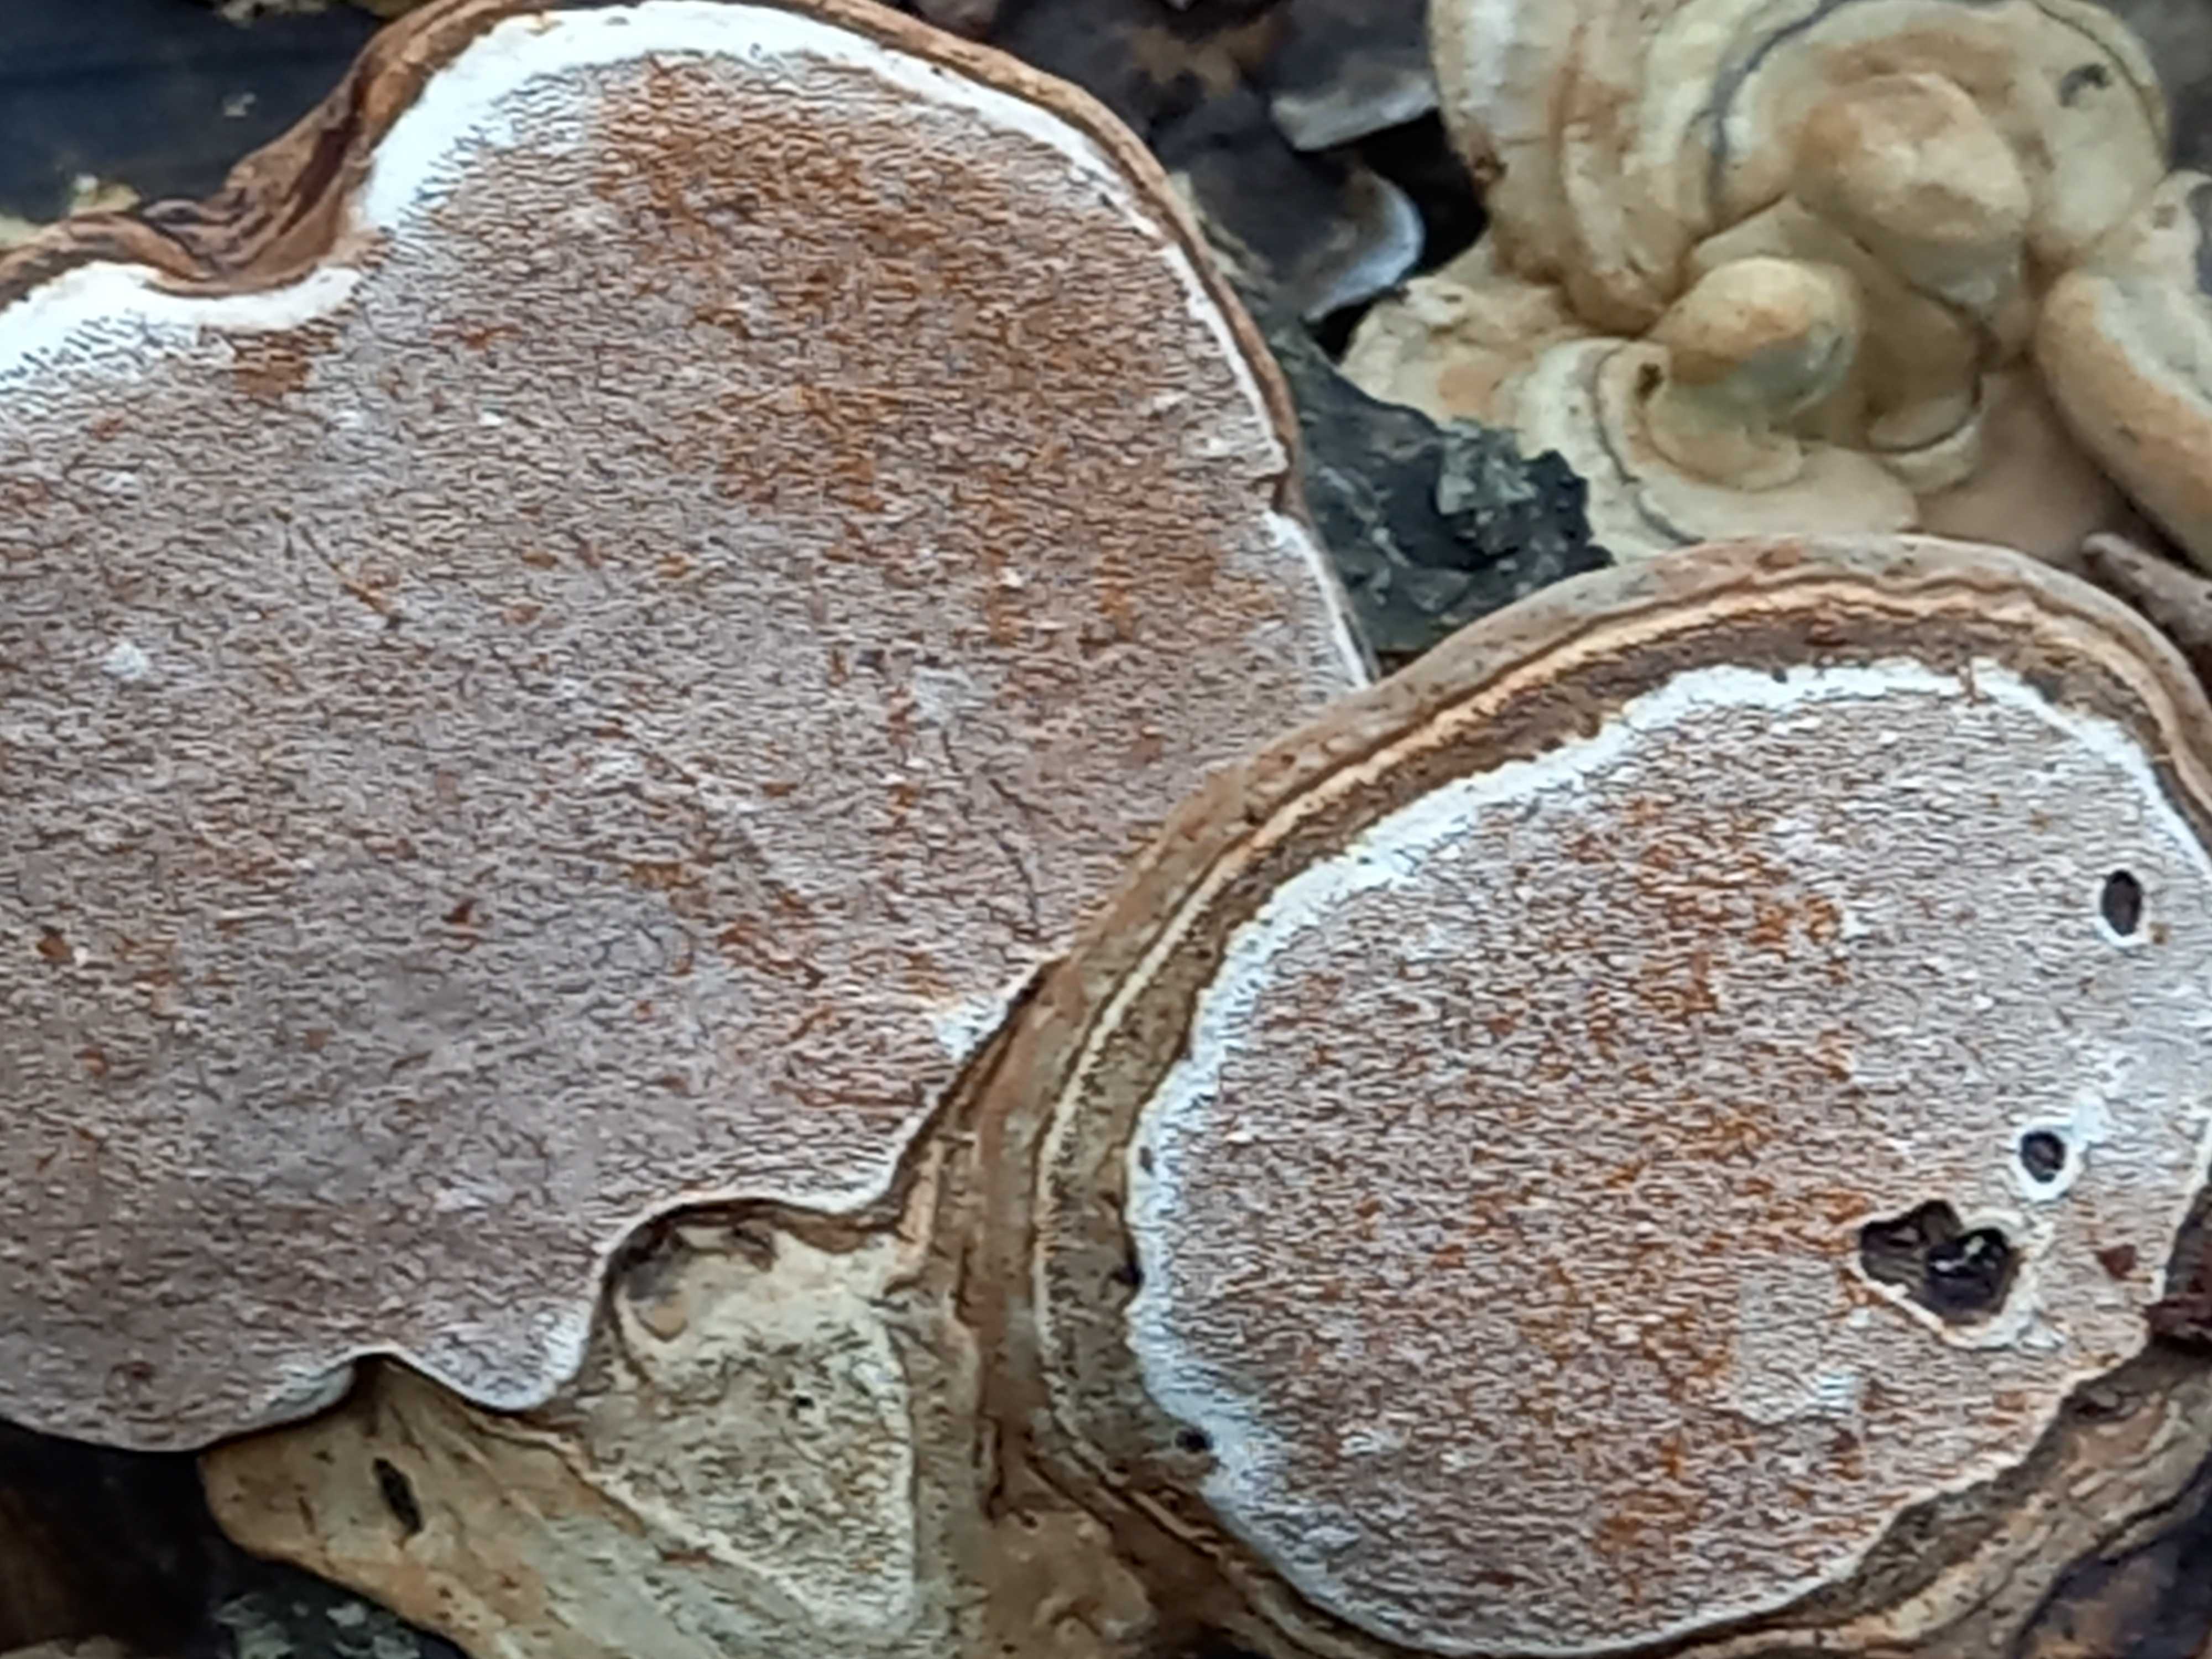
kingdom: Fungi
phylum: Basidiomycota
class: Agaricomycetes
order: Polyporales
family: Polyporaceae
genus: Ganoderma
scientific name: Ganoderma applanatum
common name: flad lakporesvamp
